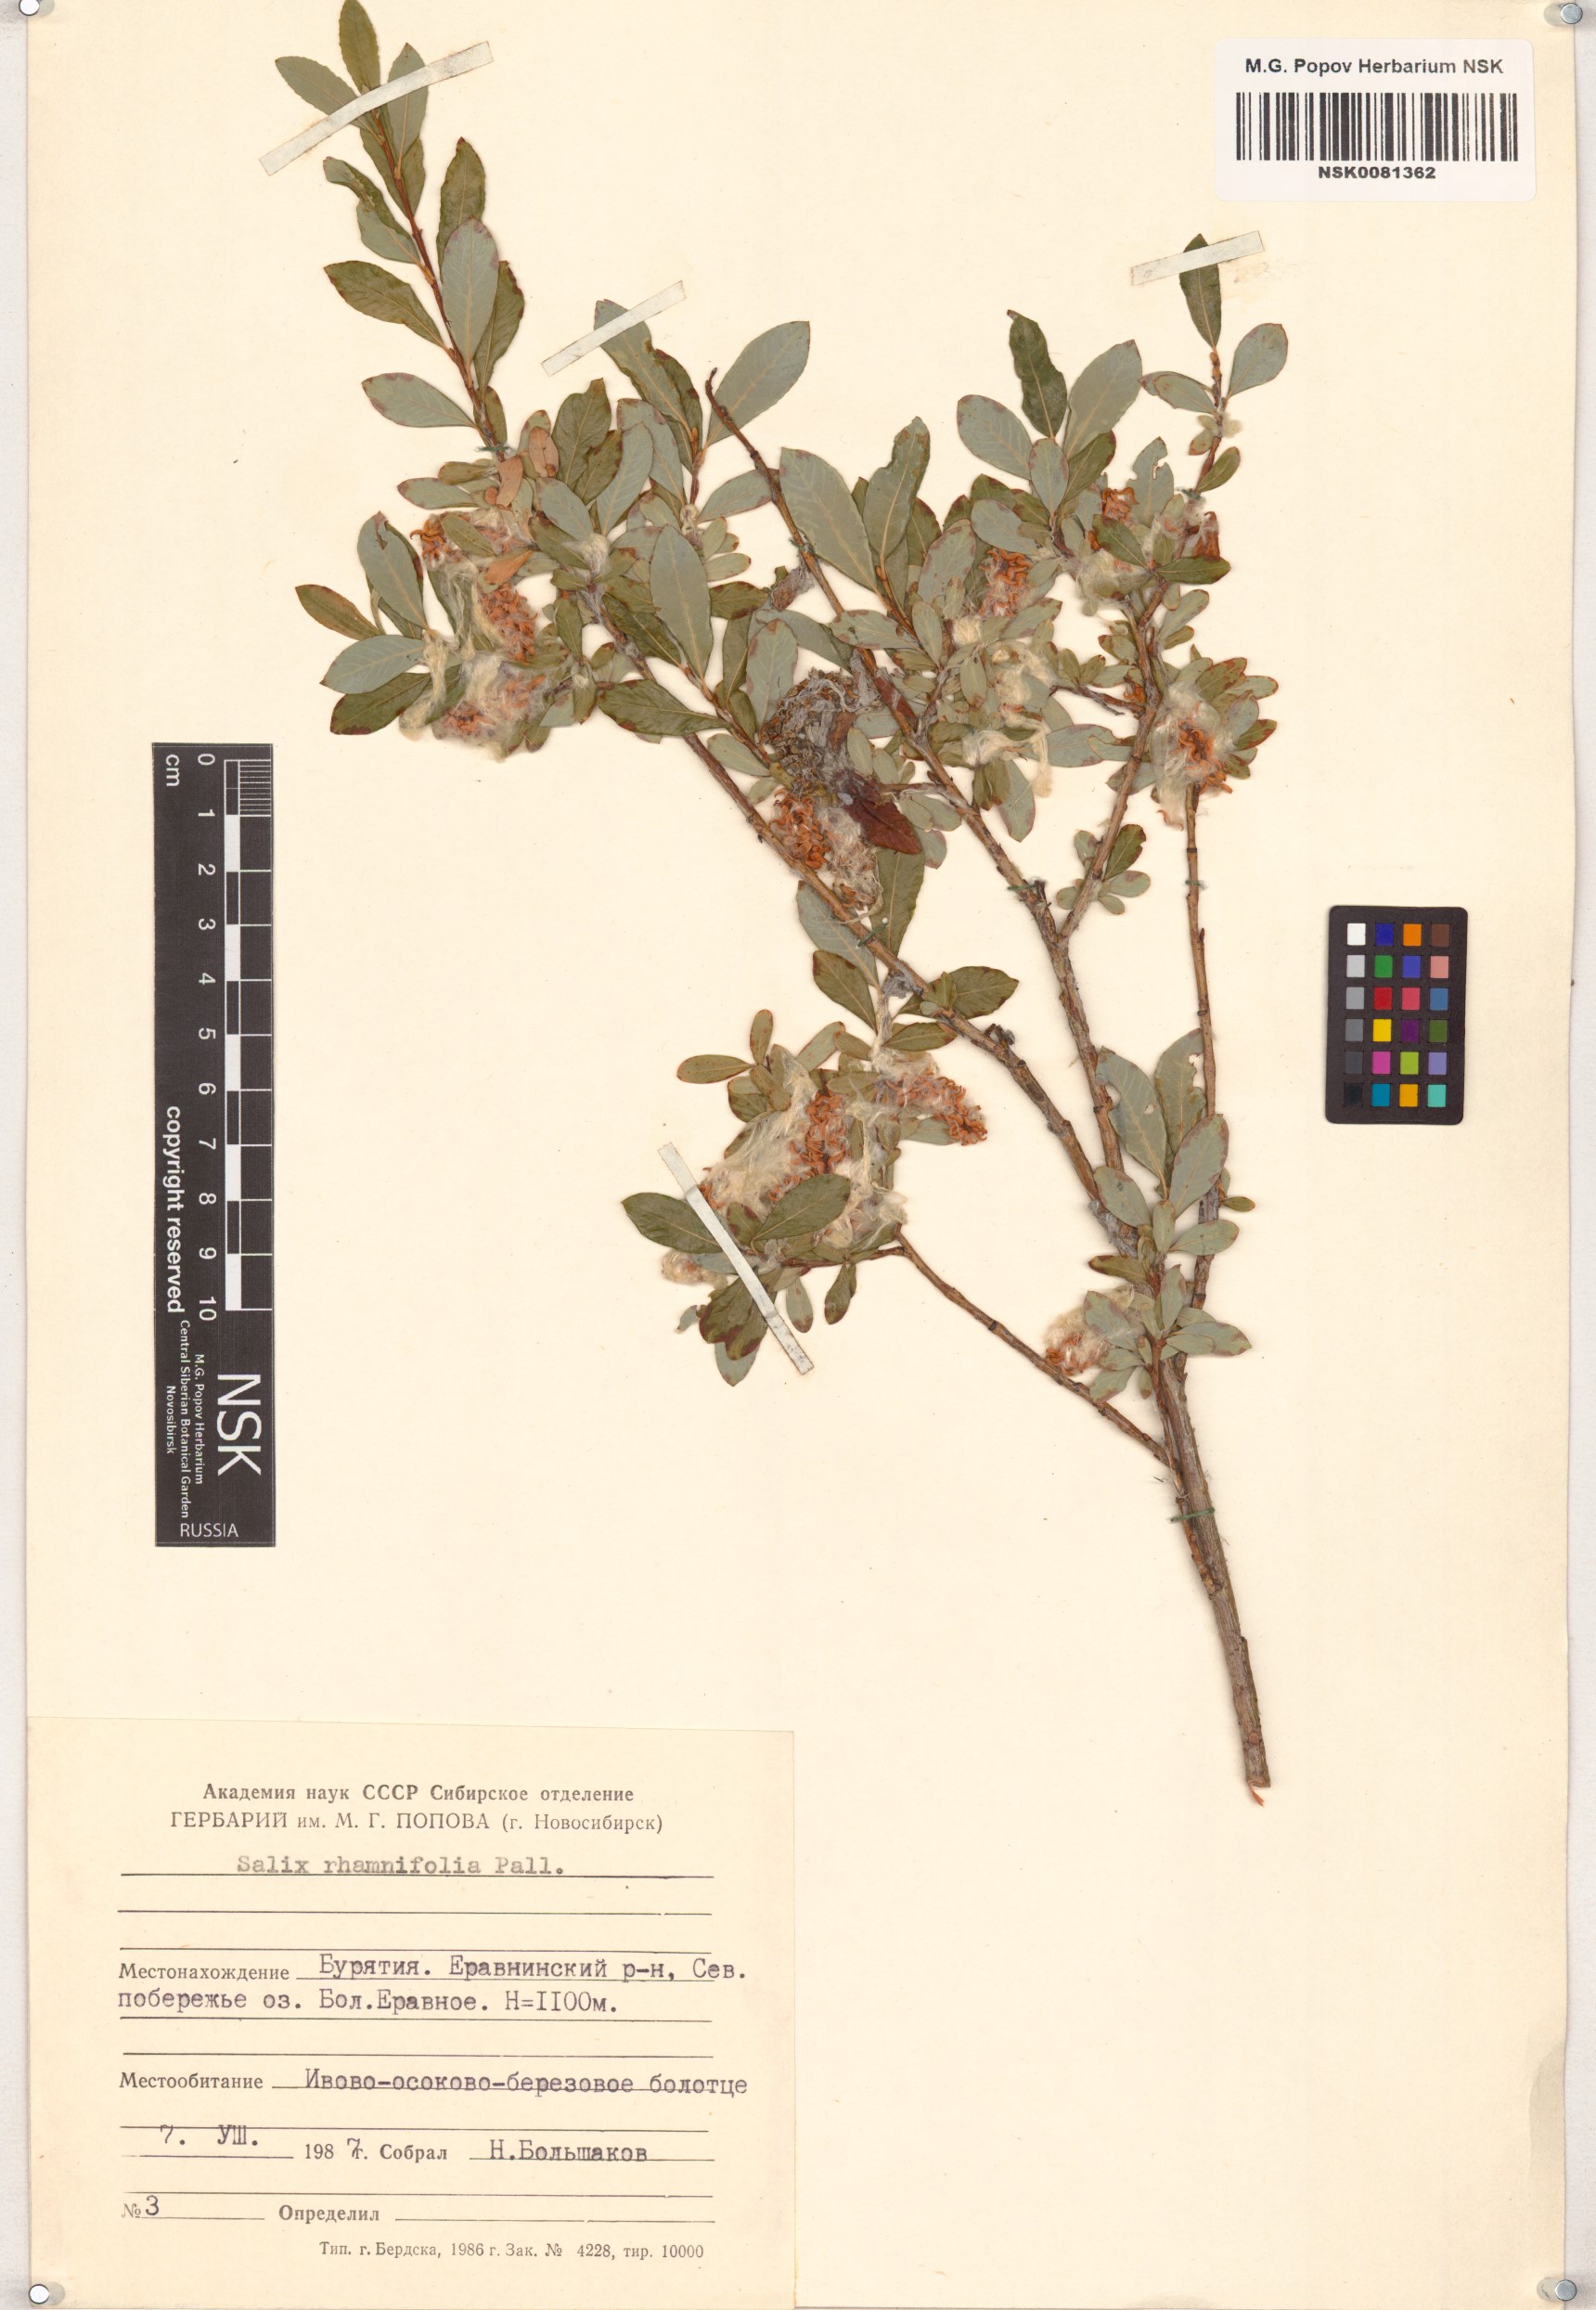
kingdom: Plantae
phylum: Tracheophyta
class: Magnoliopsida
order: Malpighiales
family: Salicaceae
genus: Salix
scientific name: Salix rhamnifolia
